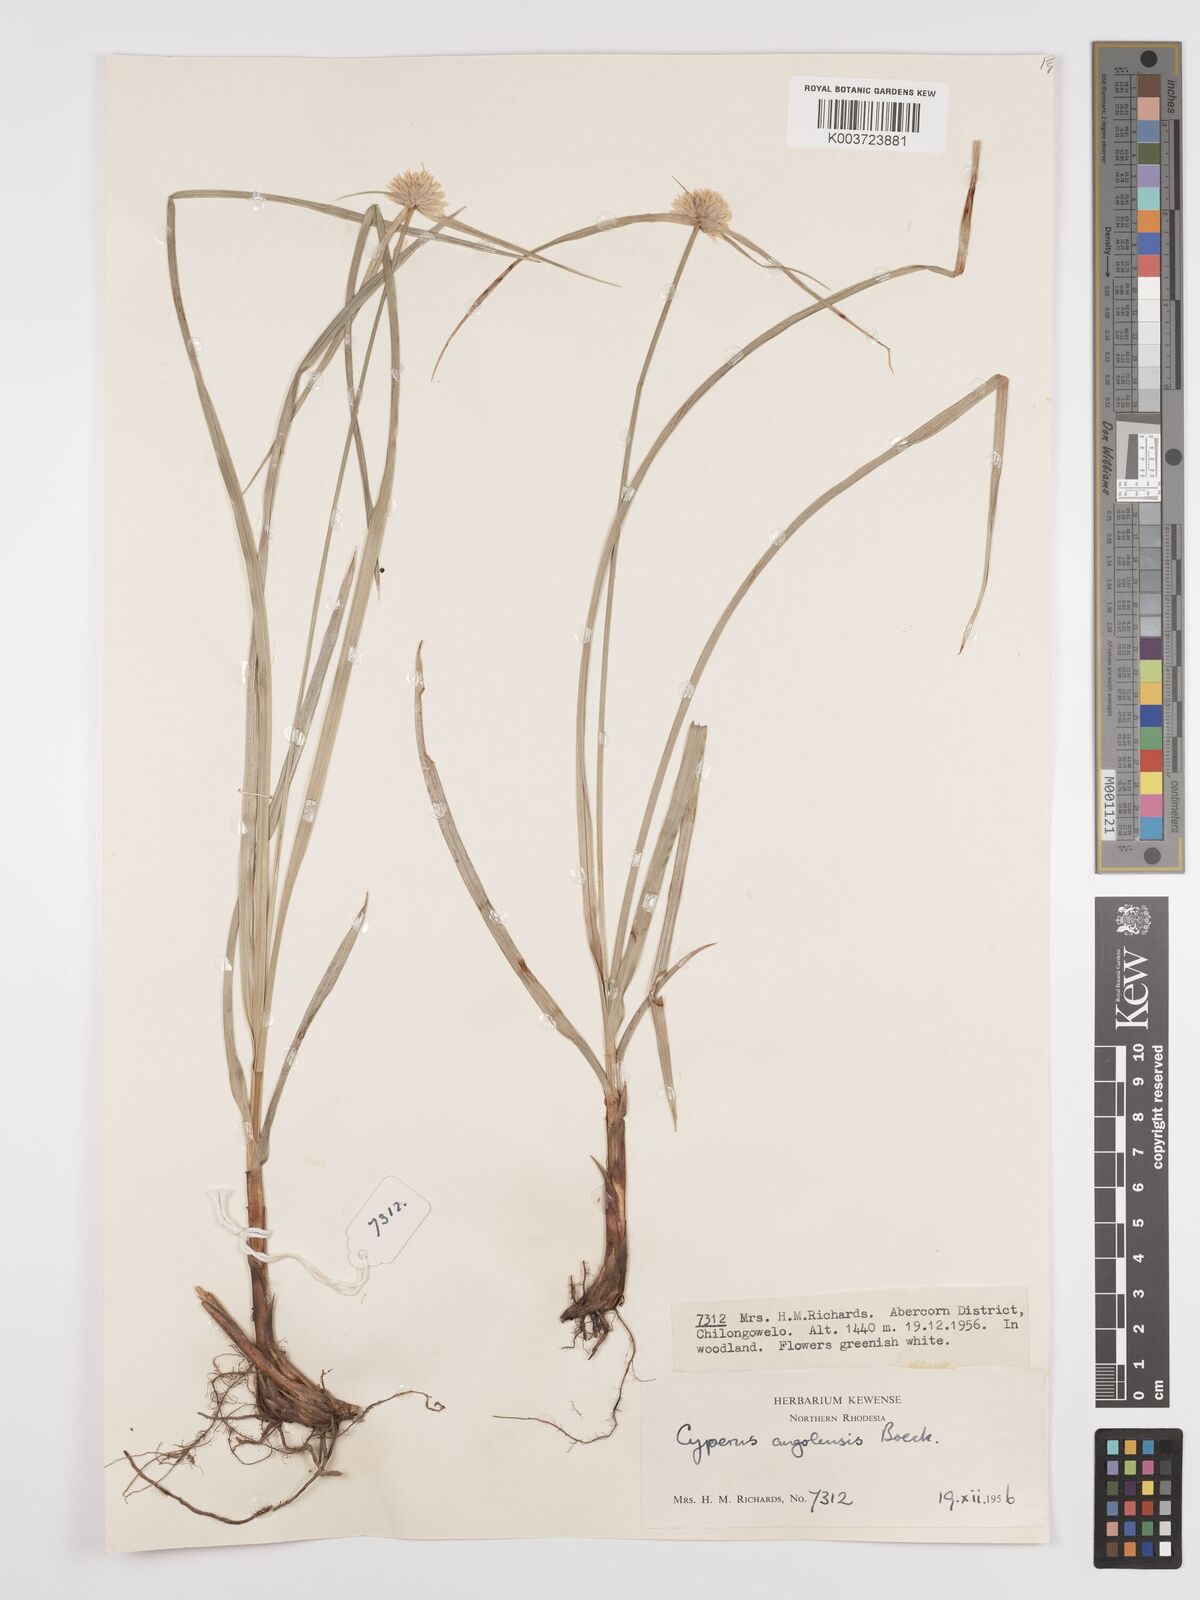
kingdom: Plantae
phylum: Tracheophyta
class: Liliopsida
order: Poales
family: Cyperaceae
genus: Cyperus
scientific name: Cyperus angolensis
